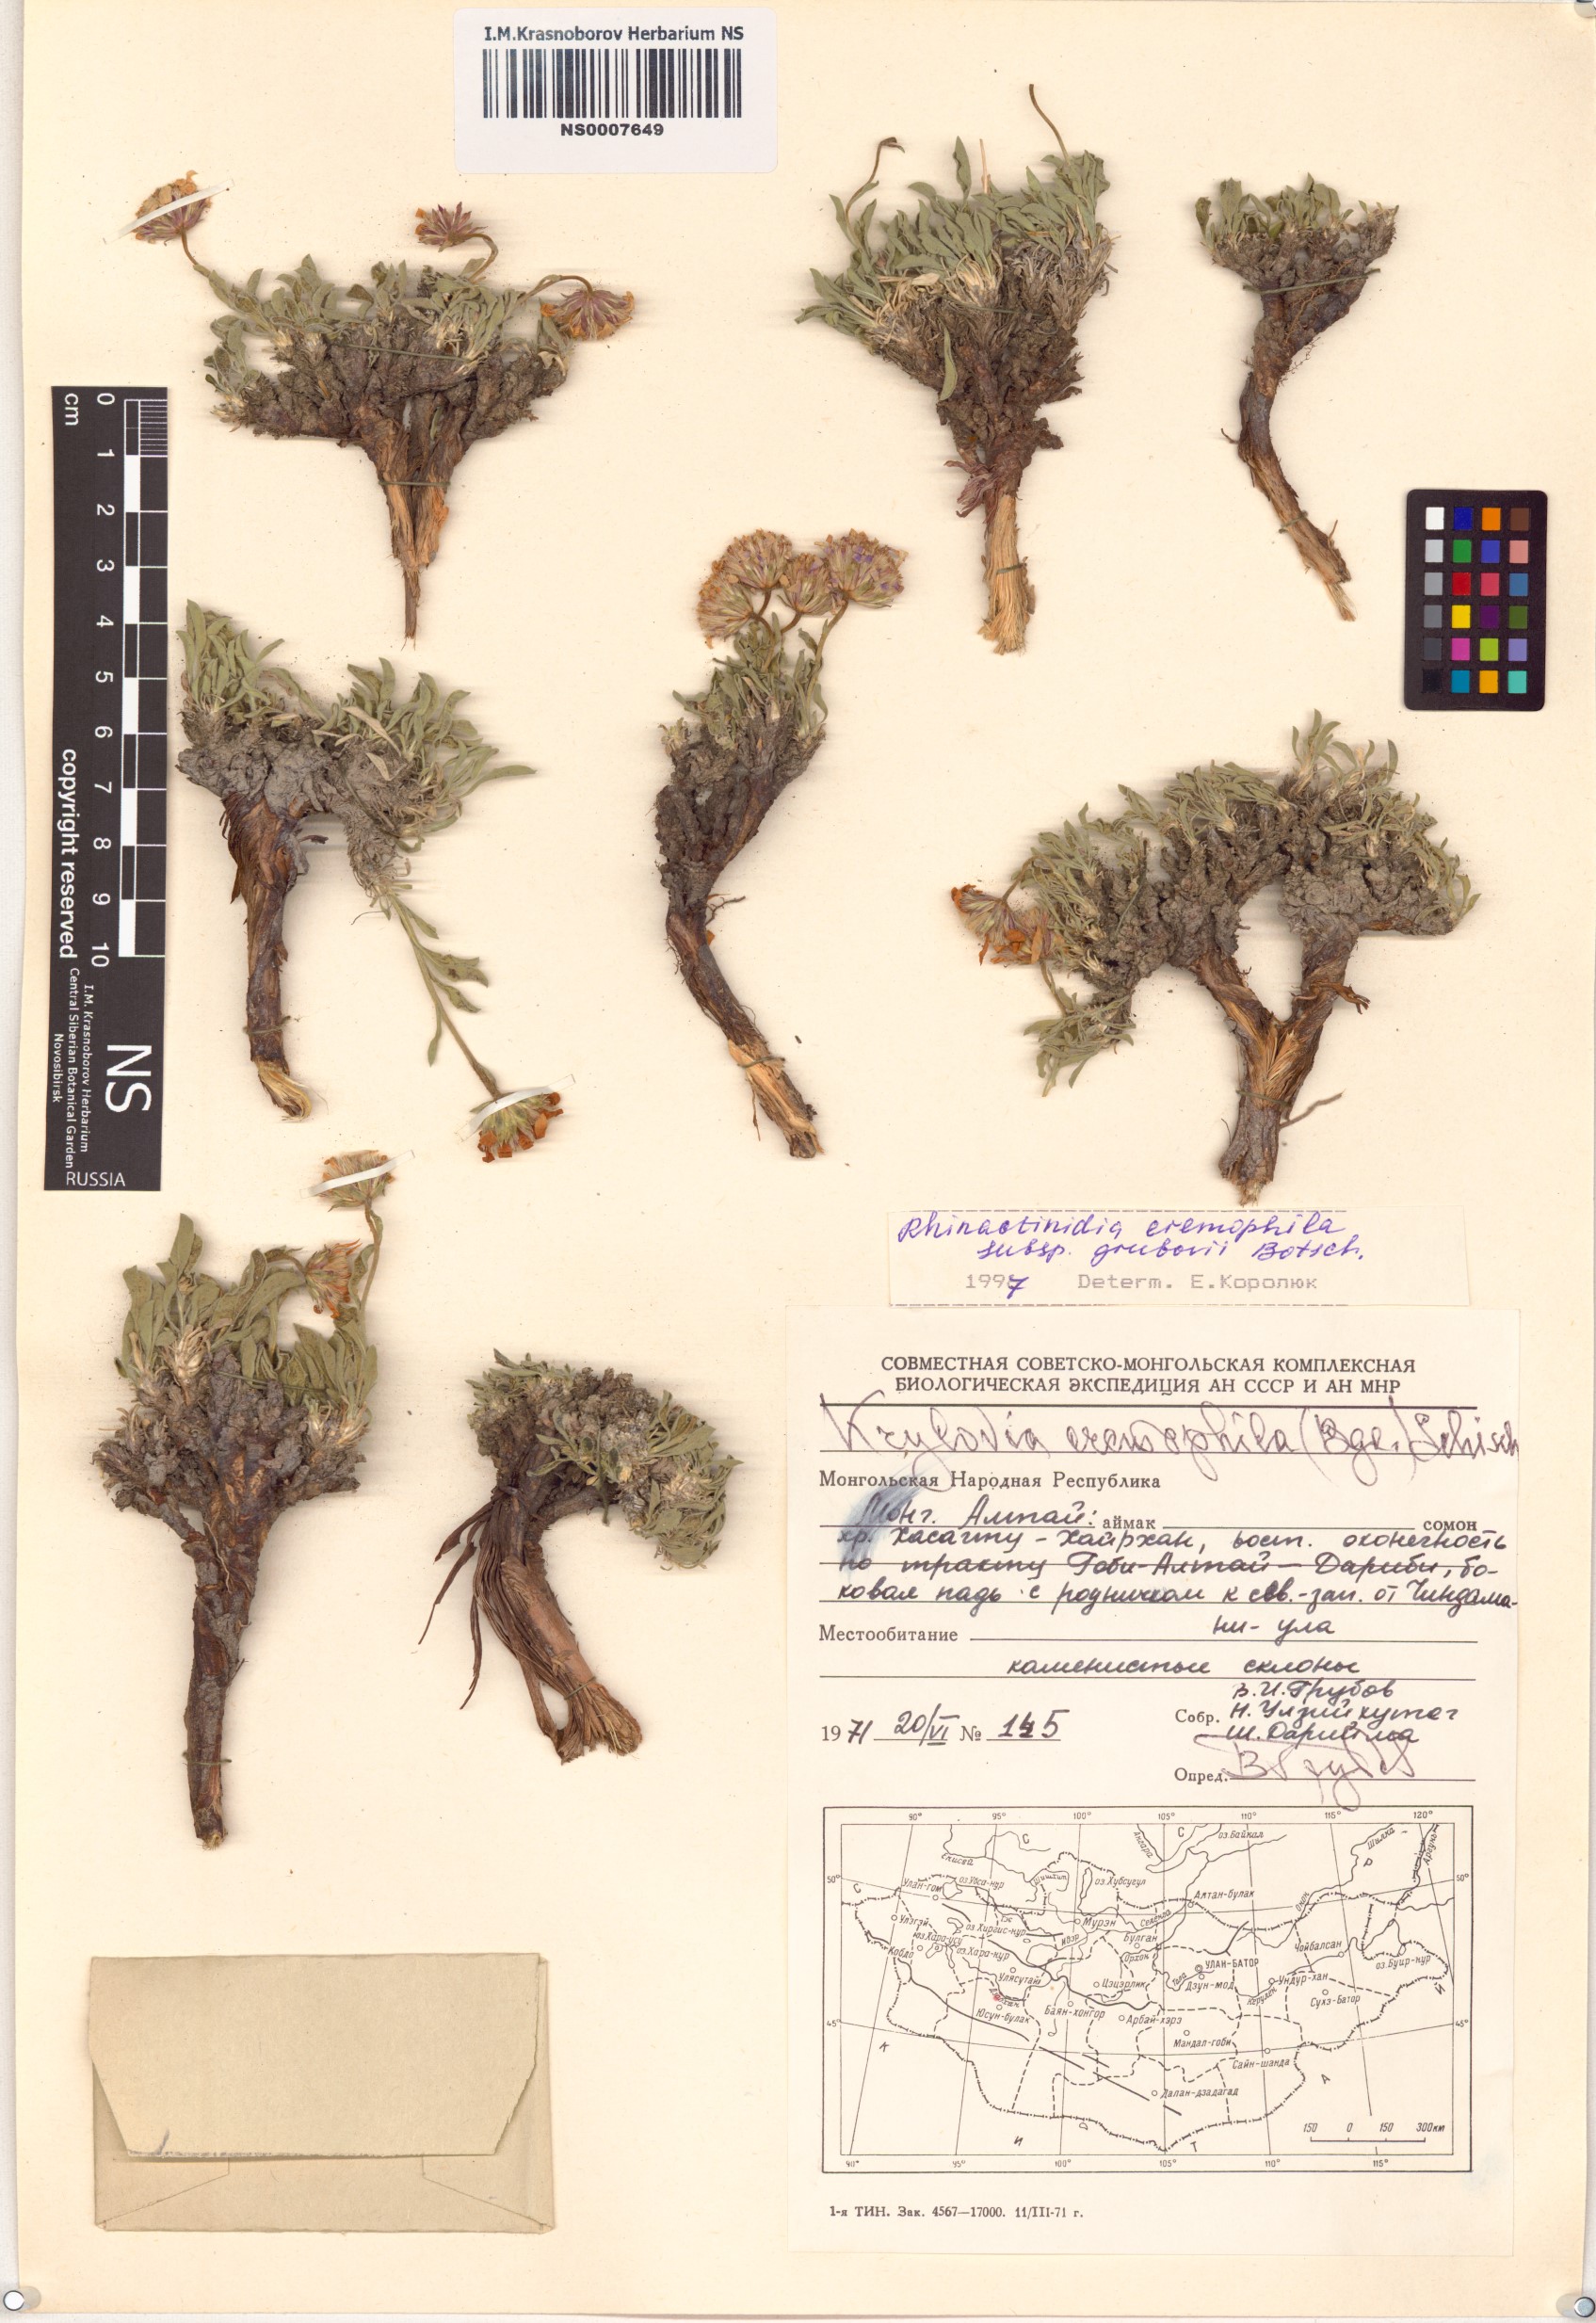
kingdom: Plantae
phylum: Tracheophyta
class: Magnoliopsida
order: Asterales
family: Asteraceae
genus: Rhinactinidia
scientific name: Rhinactinidia eremophila
